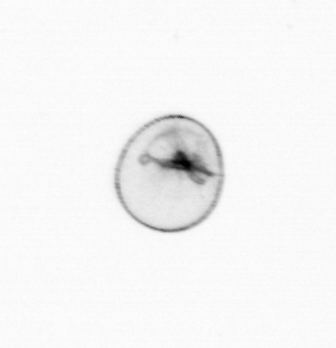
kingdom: Chromista
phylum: Myzozoa
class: Dinophyceae
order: Noctilucales
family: Noctilucaceae
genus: Noctiluca
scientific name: Noctiluca scintillans
